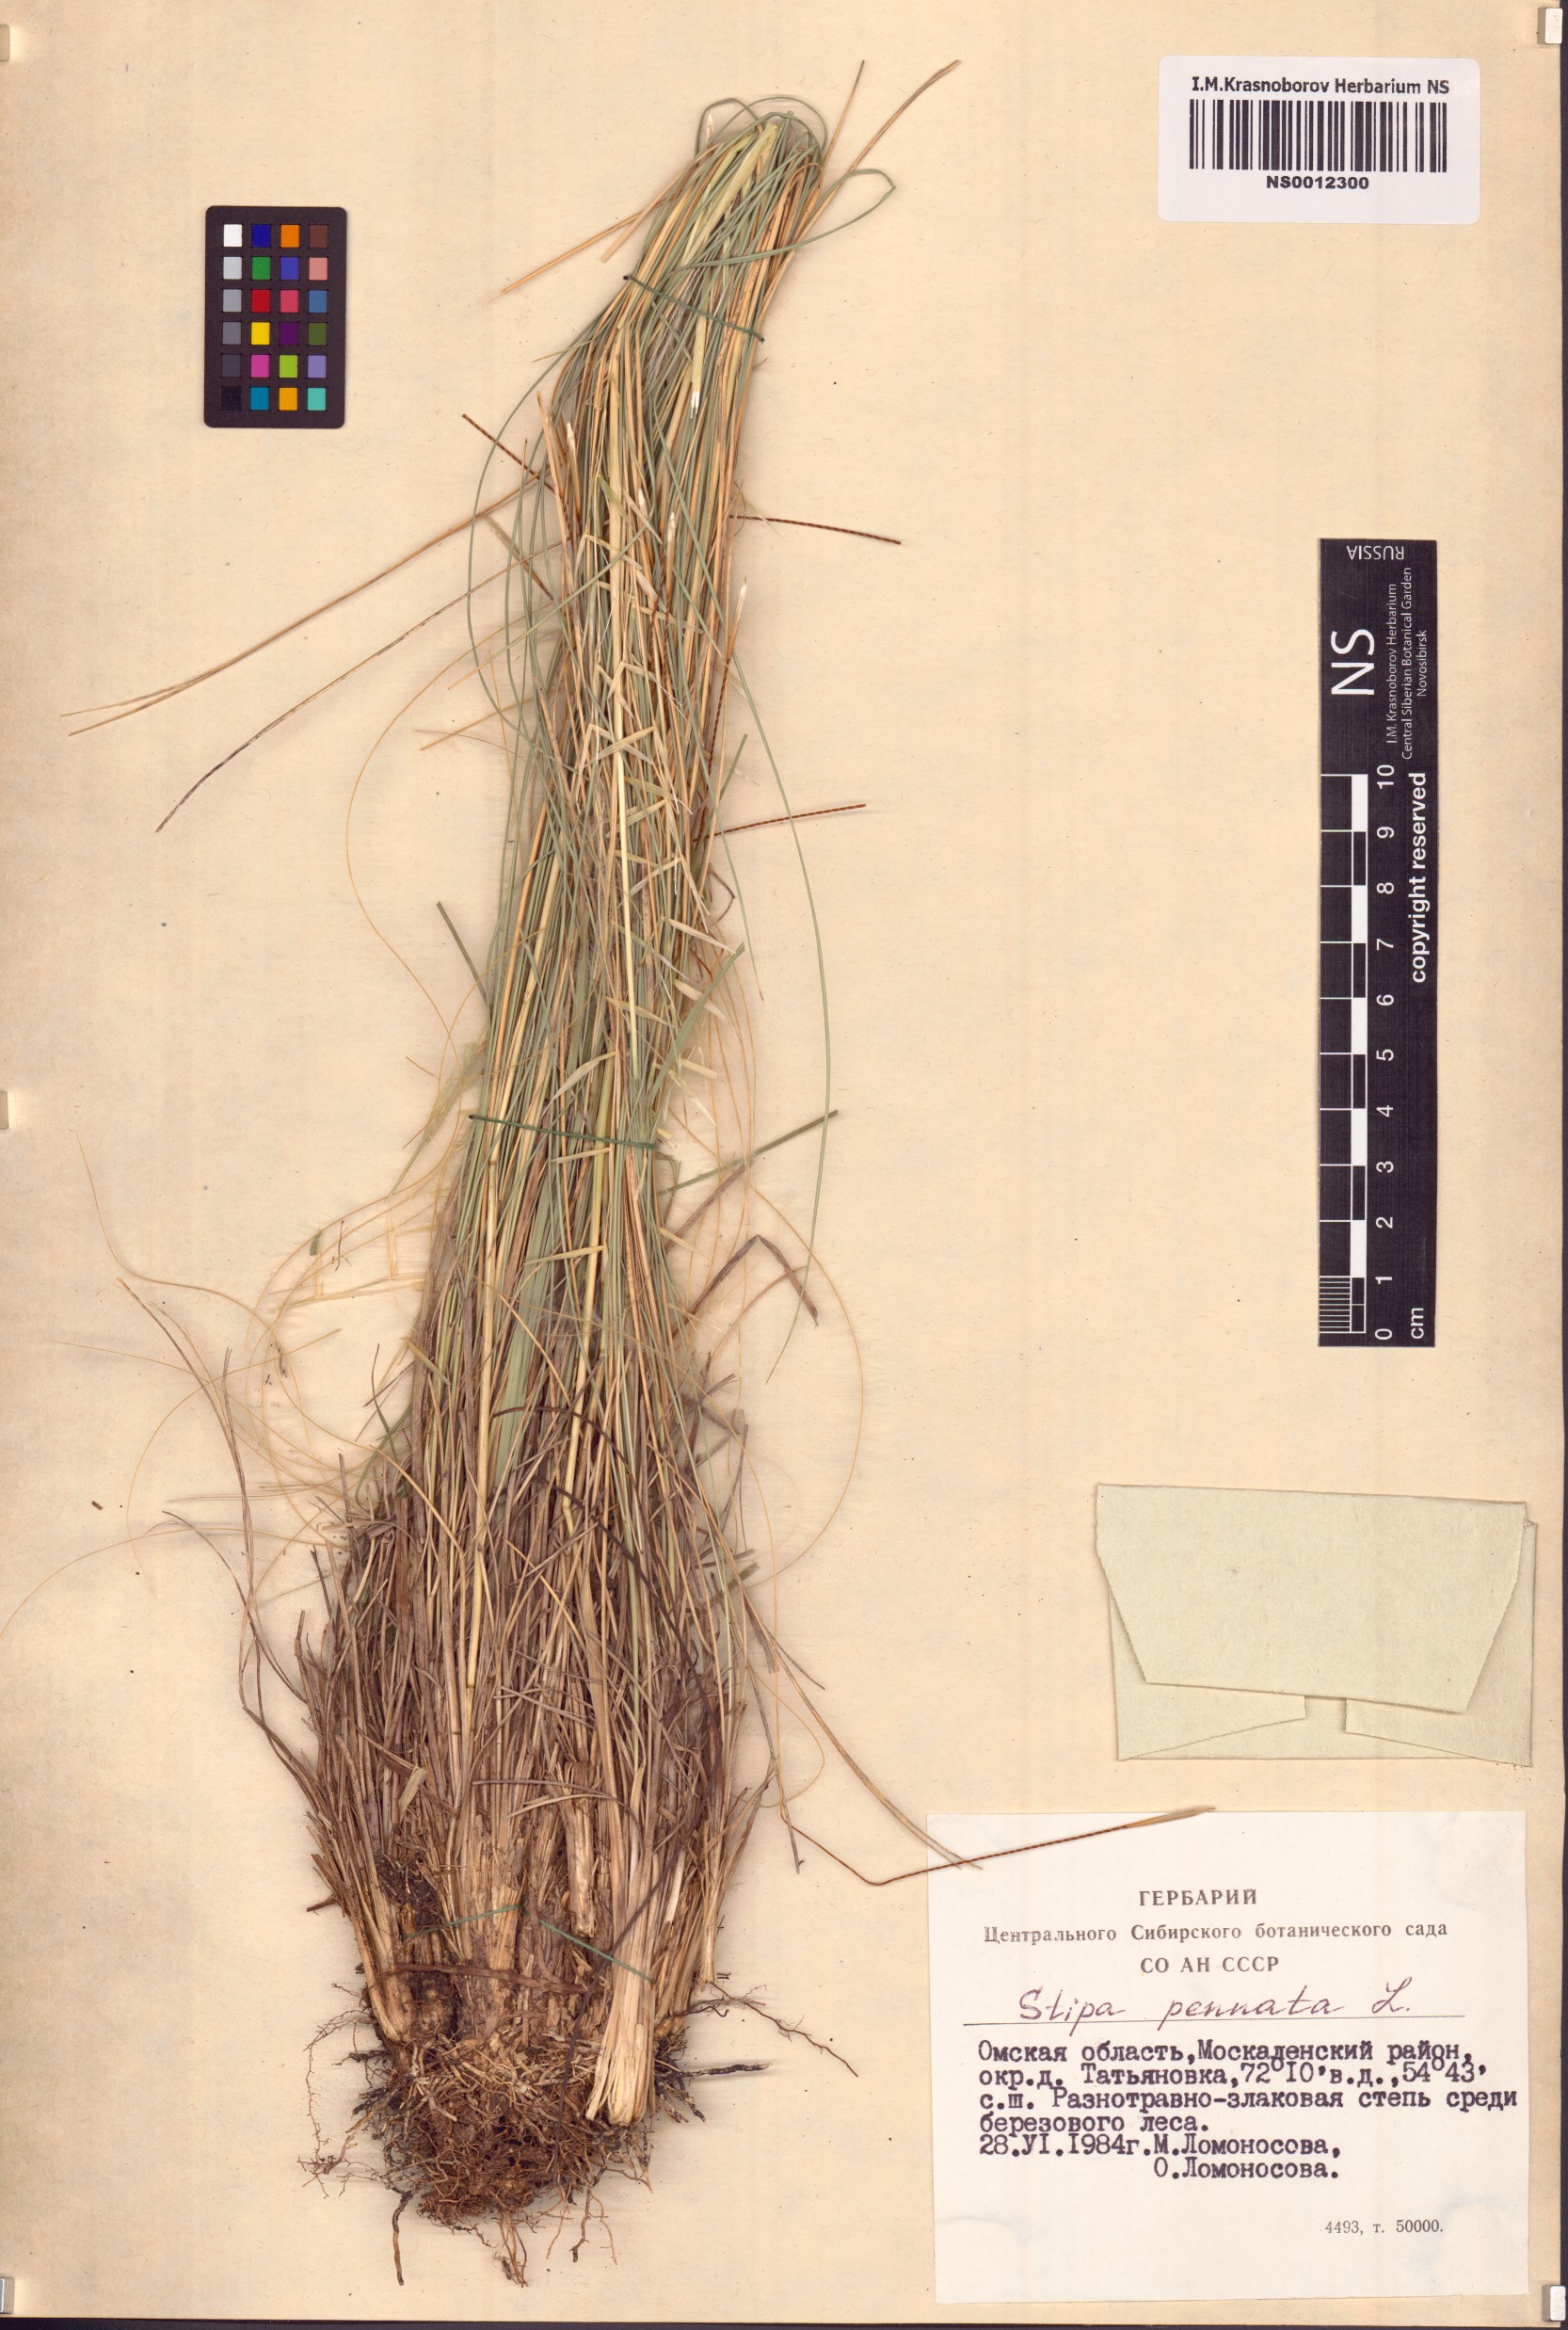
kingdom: Plantae
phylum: Tracheophyta
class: Liliopsida
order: Poales
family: Poaceae
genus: Stipa
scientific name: Stipa pennata
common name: European feather grass
